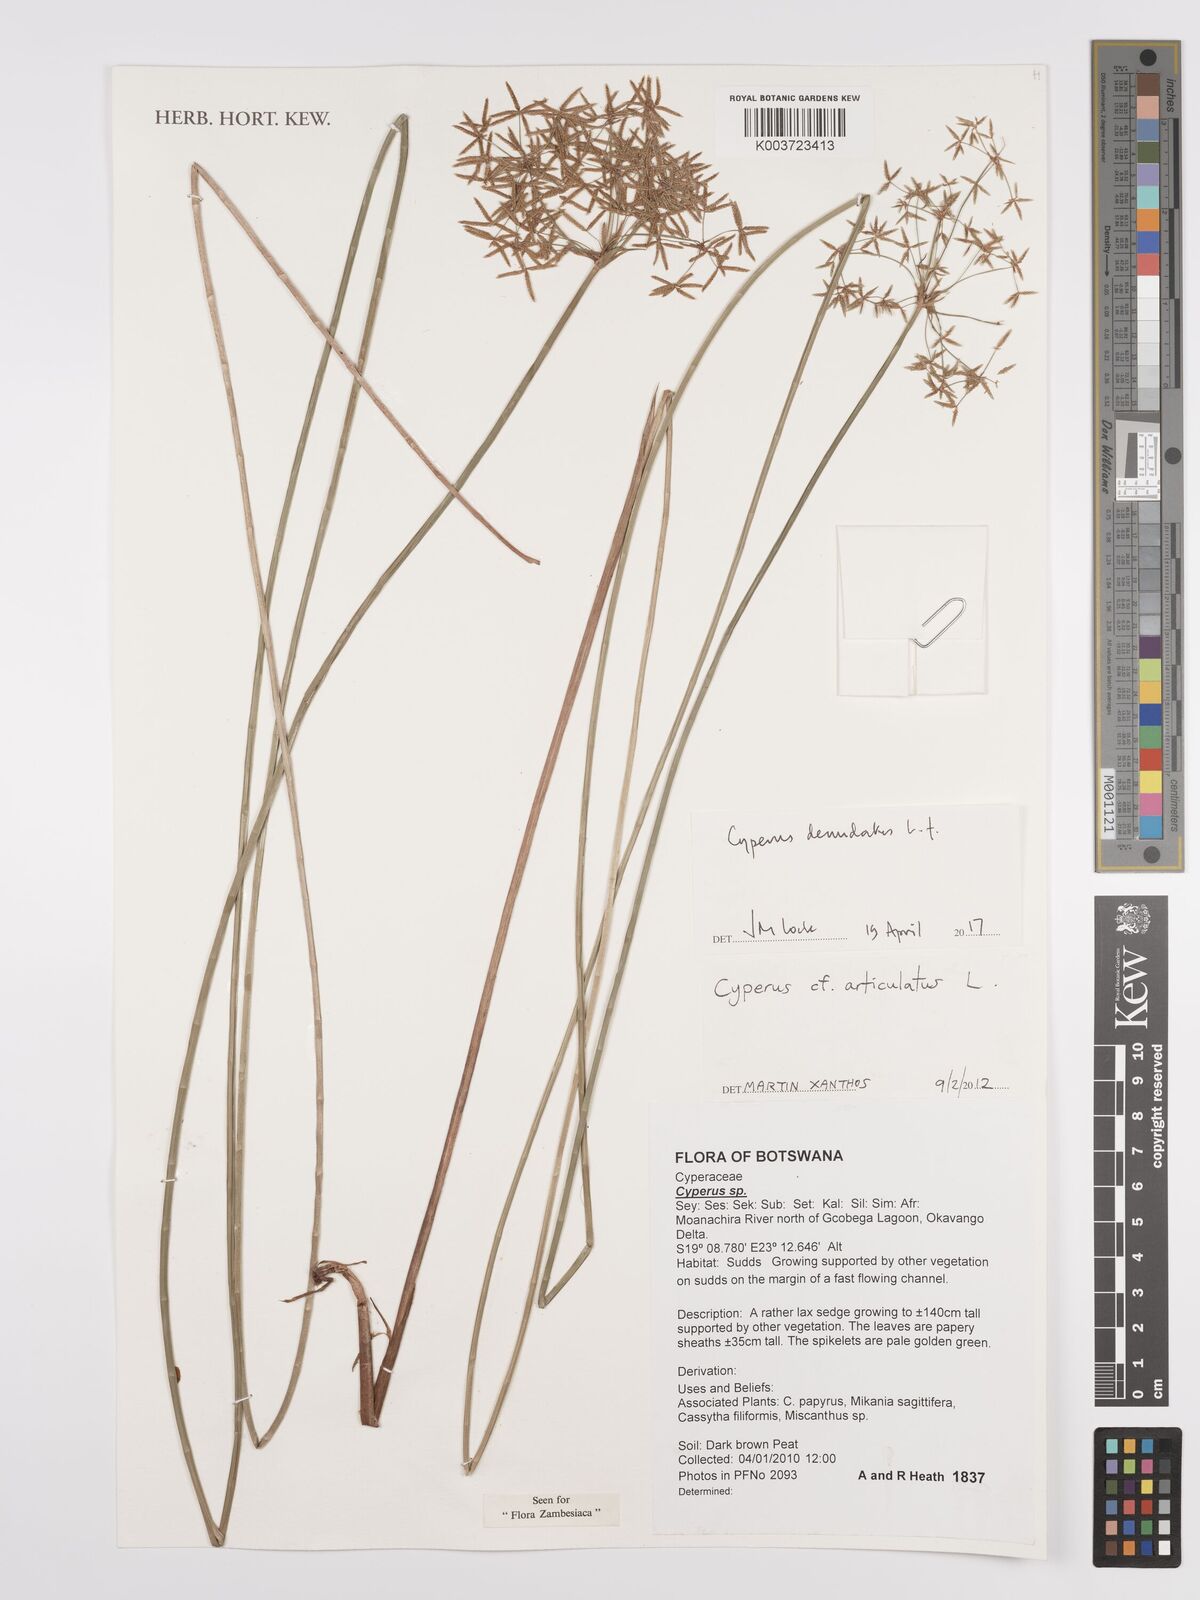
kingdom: Plantae
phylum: Tracheophyta
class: Liliopsida
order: Poales
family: Cyperaceae
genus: Cyperus
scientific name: Cyperus denudatus
